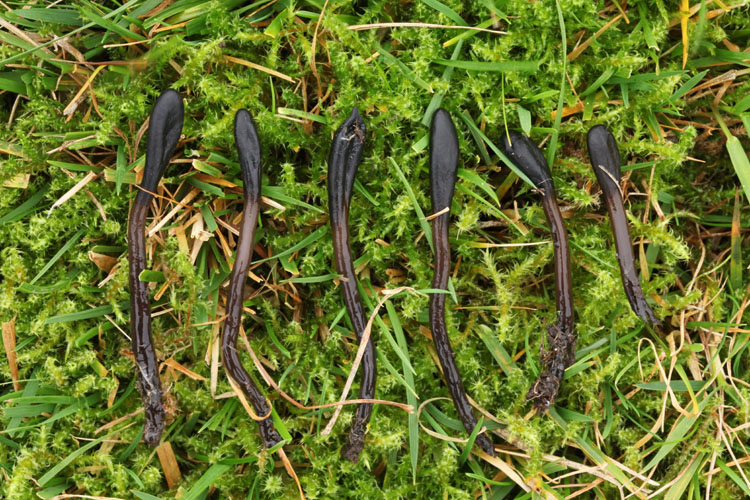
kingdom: Fungi
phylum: Ascomycota
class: Geoglossomycetes
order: Geoglossales
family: Geoglossaceae
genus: Glutinoglossum
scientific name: Glutinoglossum glutinosum
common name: slimet jordtunge
